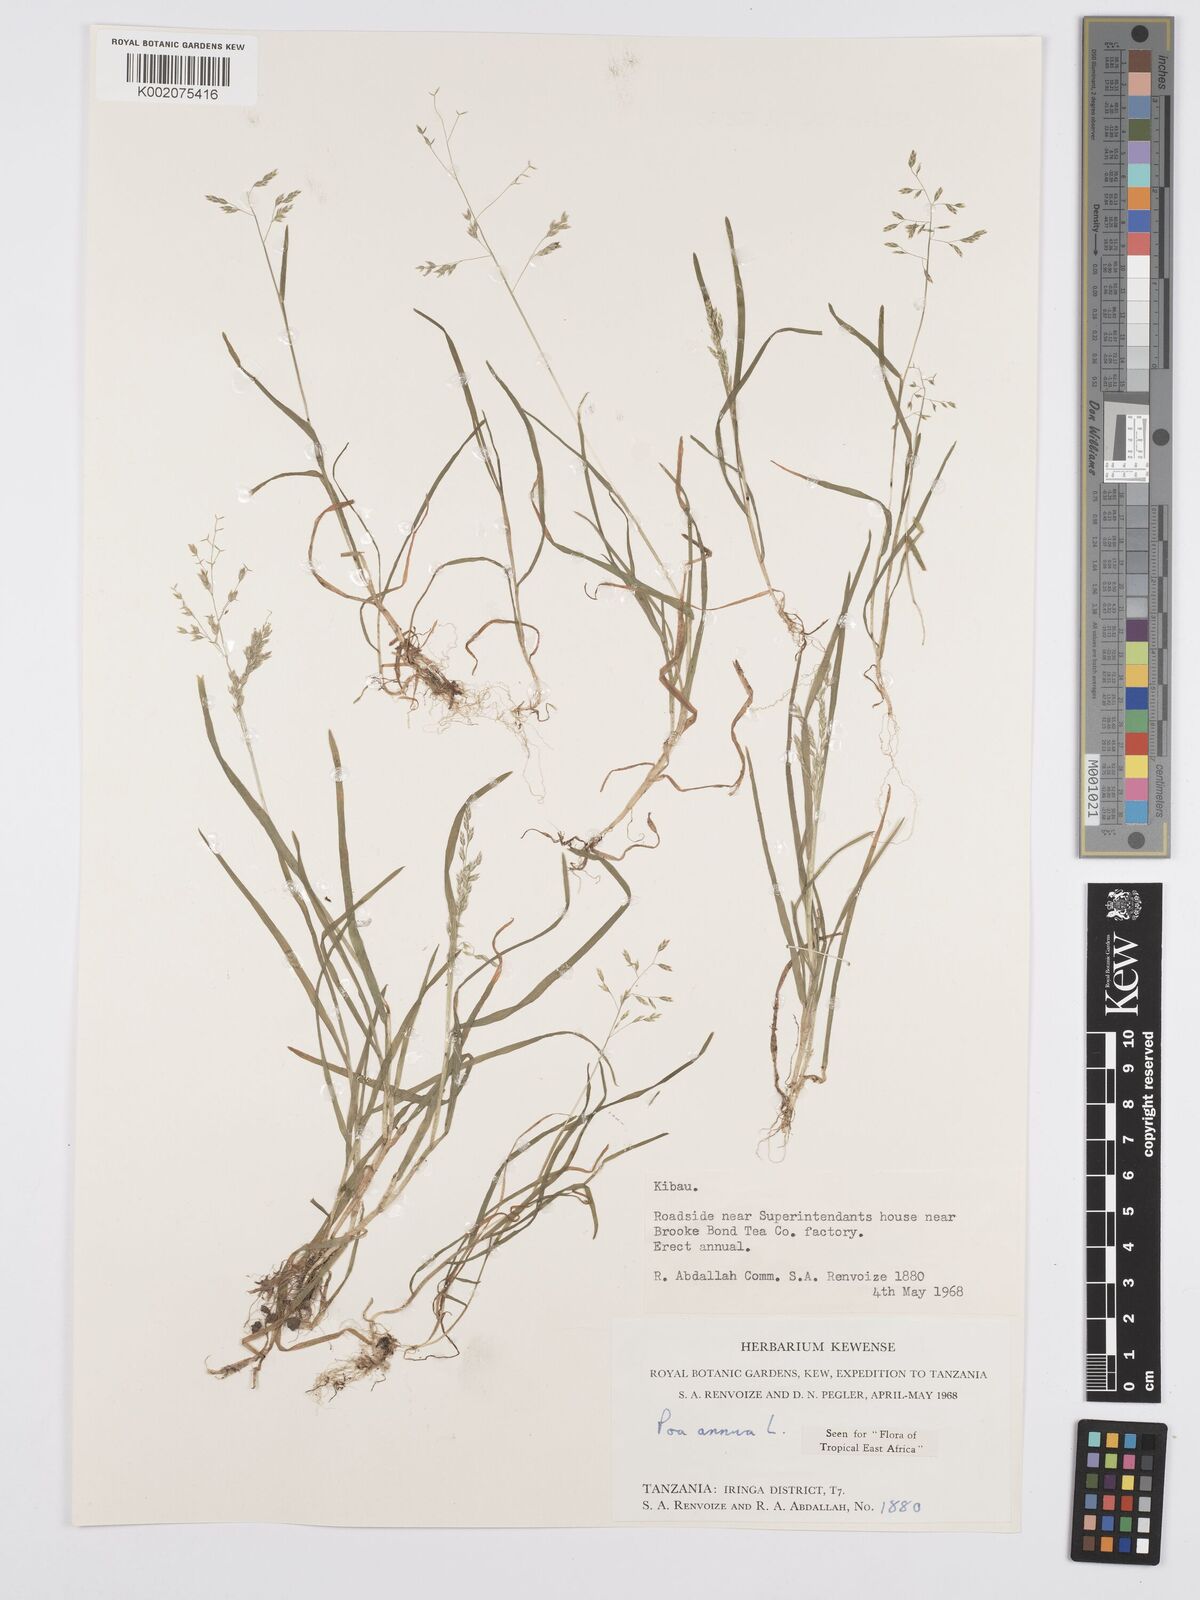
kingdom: Plantae
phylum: Tracheophyta
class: Liliopsida
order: Poales
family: Poaceae
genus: Poa
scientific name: Poa annua
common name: Annual bluegrass
